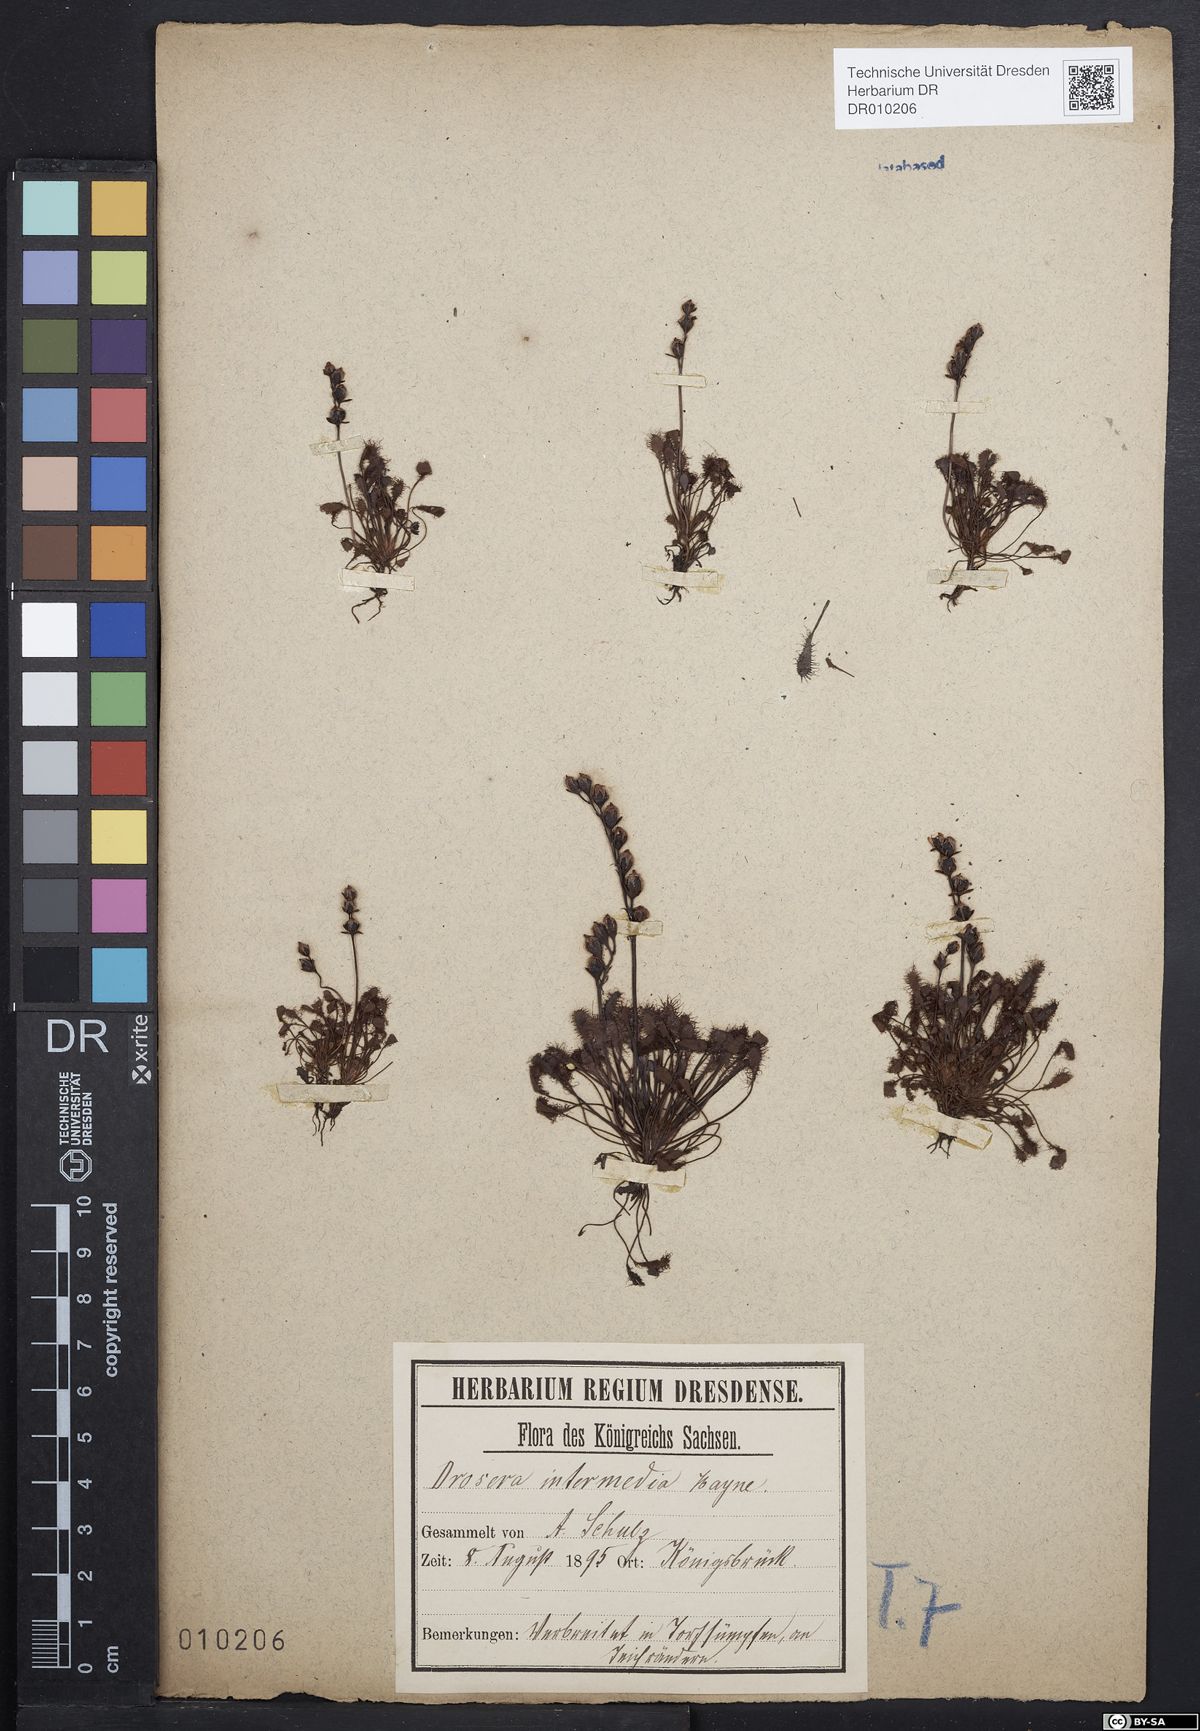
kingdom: Plantae
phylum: Tracheophyta
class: Magnoliopsida
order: Caryophyllales
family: Droseraceae
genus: Drosera
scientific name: Drosera intermedia
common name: Oblong-leaved sundew
